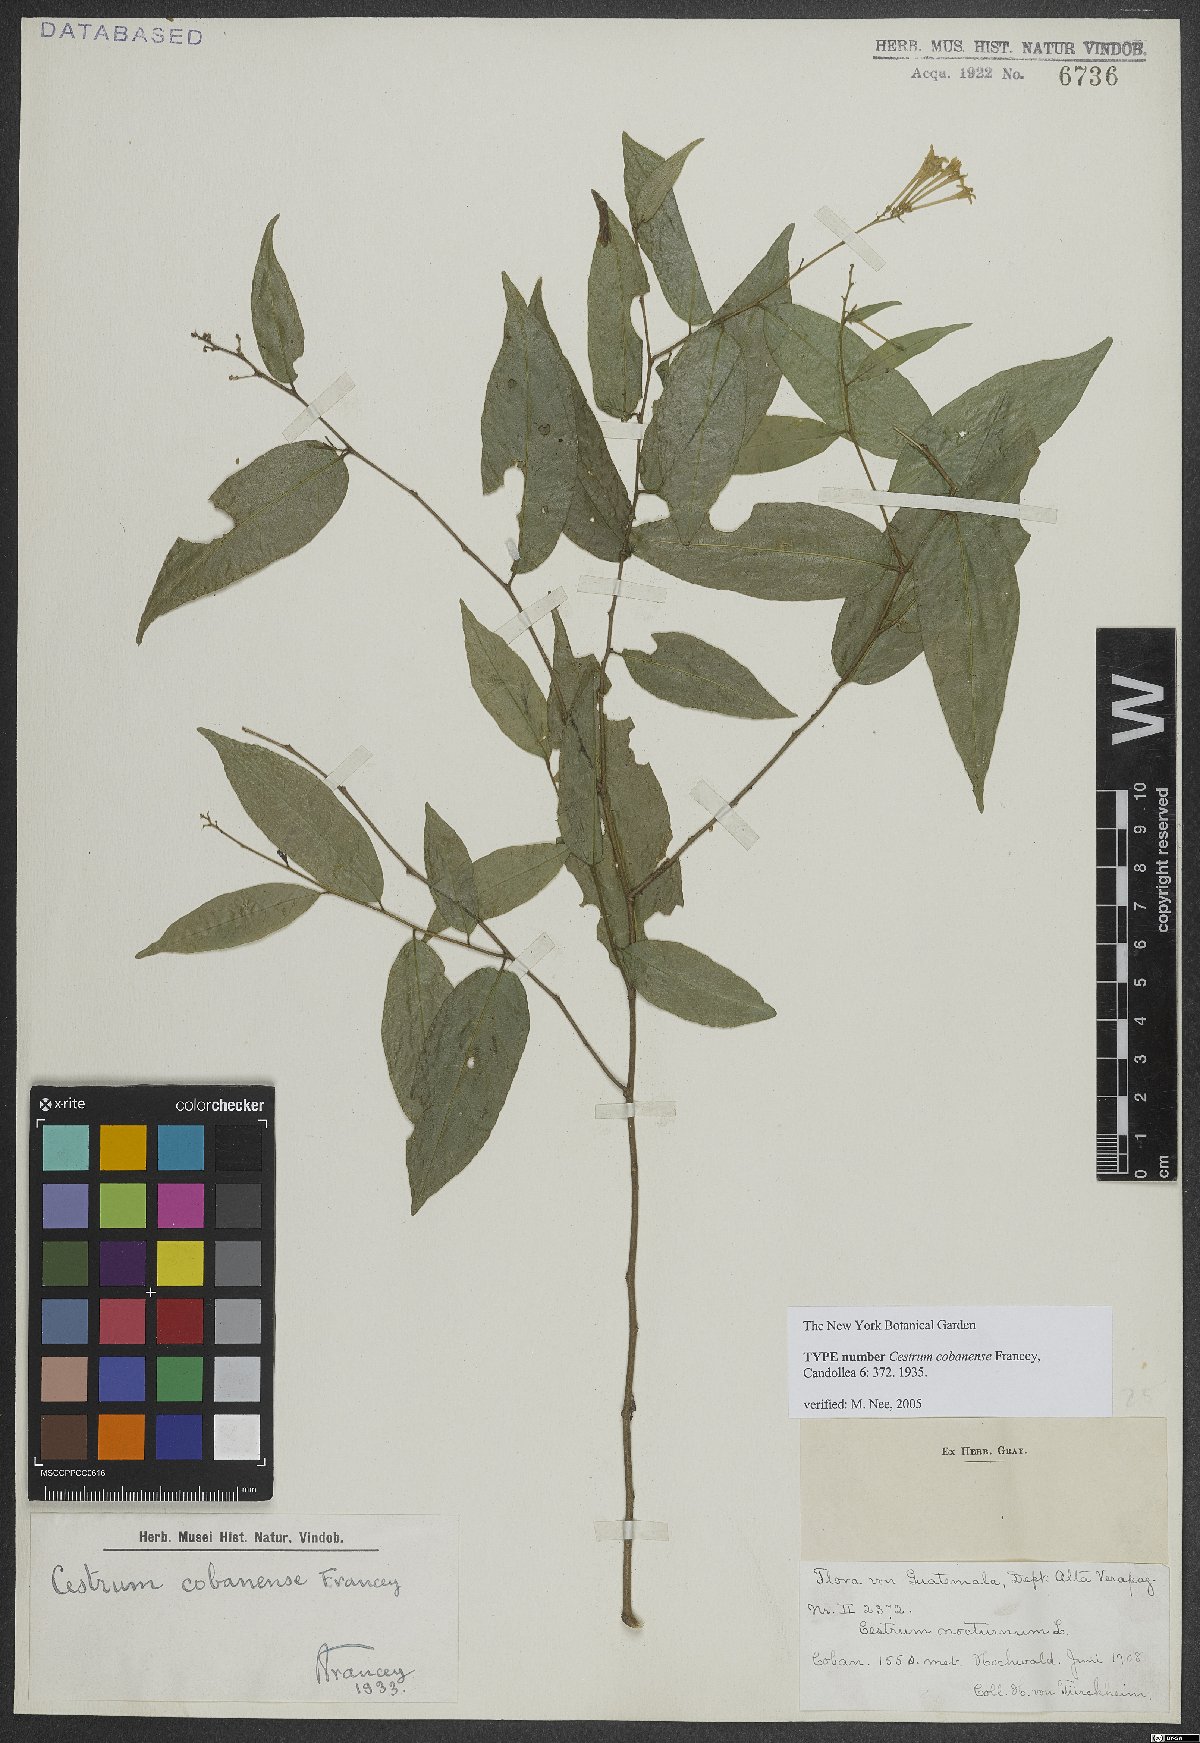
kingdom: Plantae
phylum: Tracheophyta
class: Magnoliopsida
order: Solanales
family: Solanaceae
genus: Cestrum
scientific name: Cestrum cobanense
